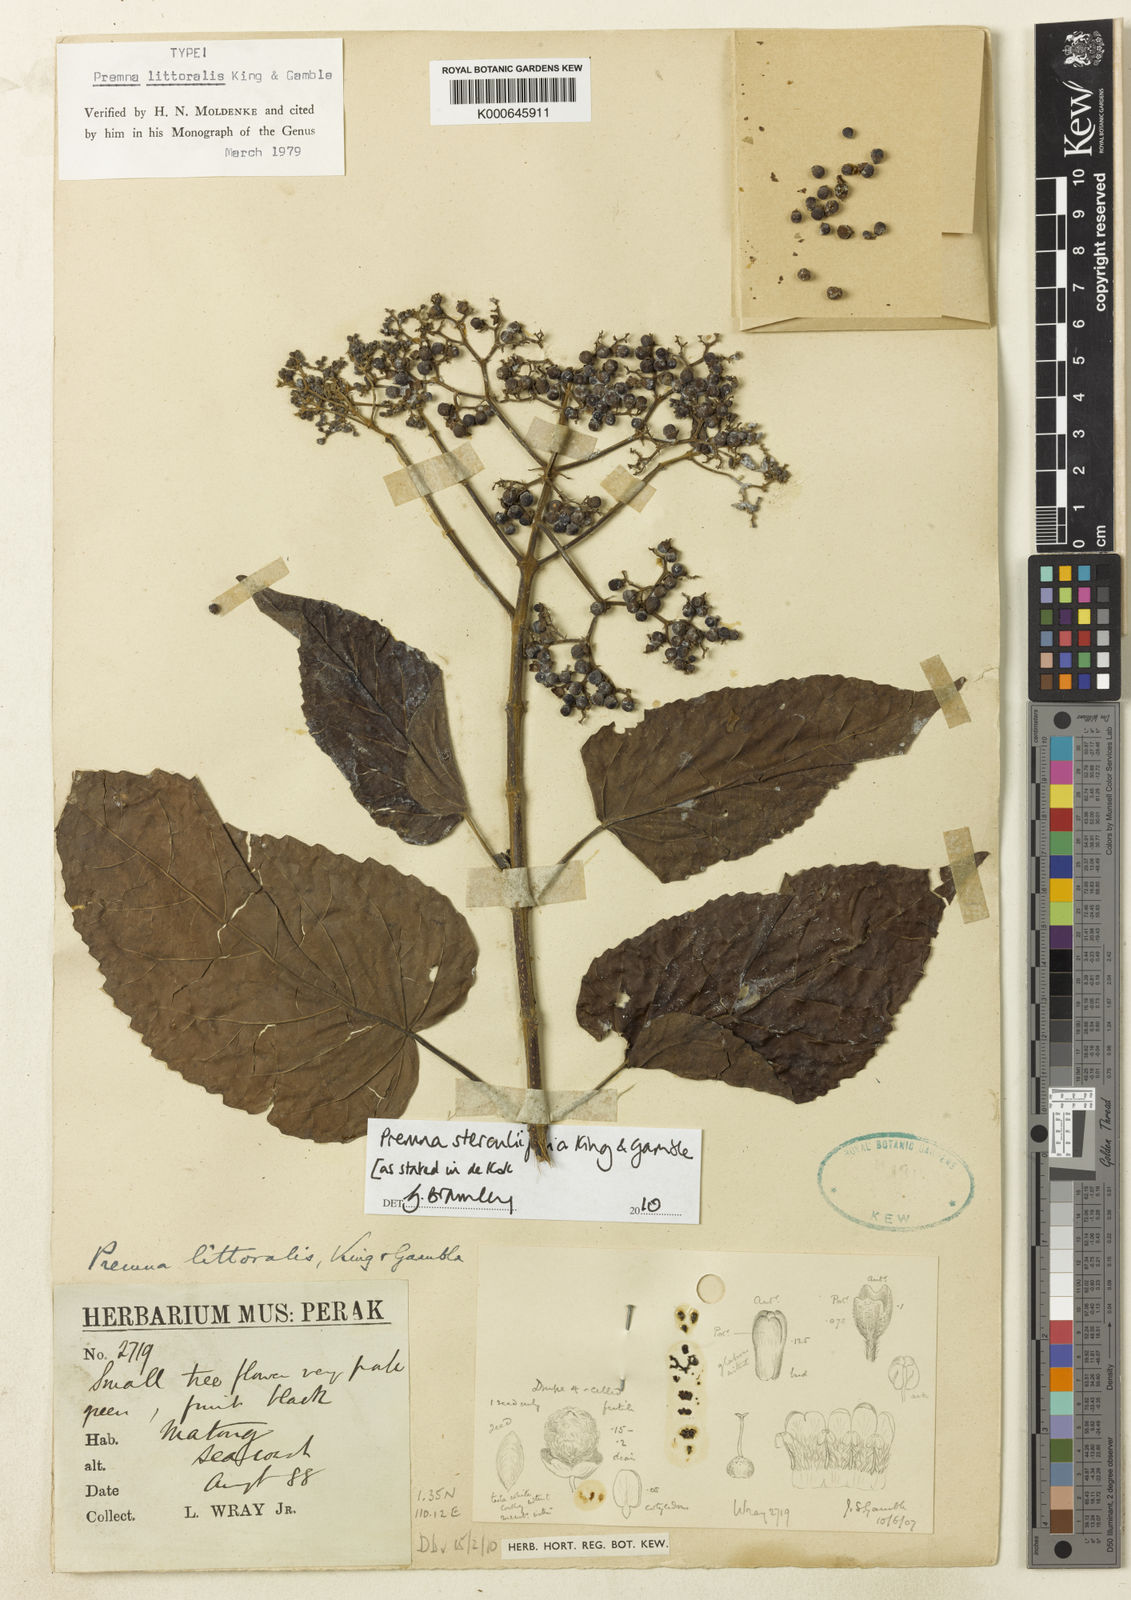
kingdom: Plantae
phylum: Tracheophyta
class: Magnoliopsida
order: Lamiales
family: Lamiaceae
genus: Premna
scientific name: Premna sterculiifolia
